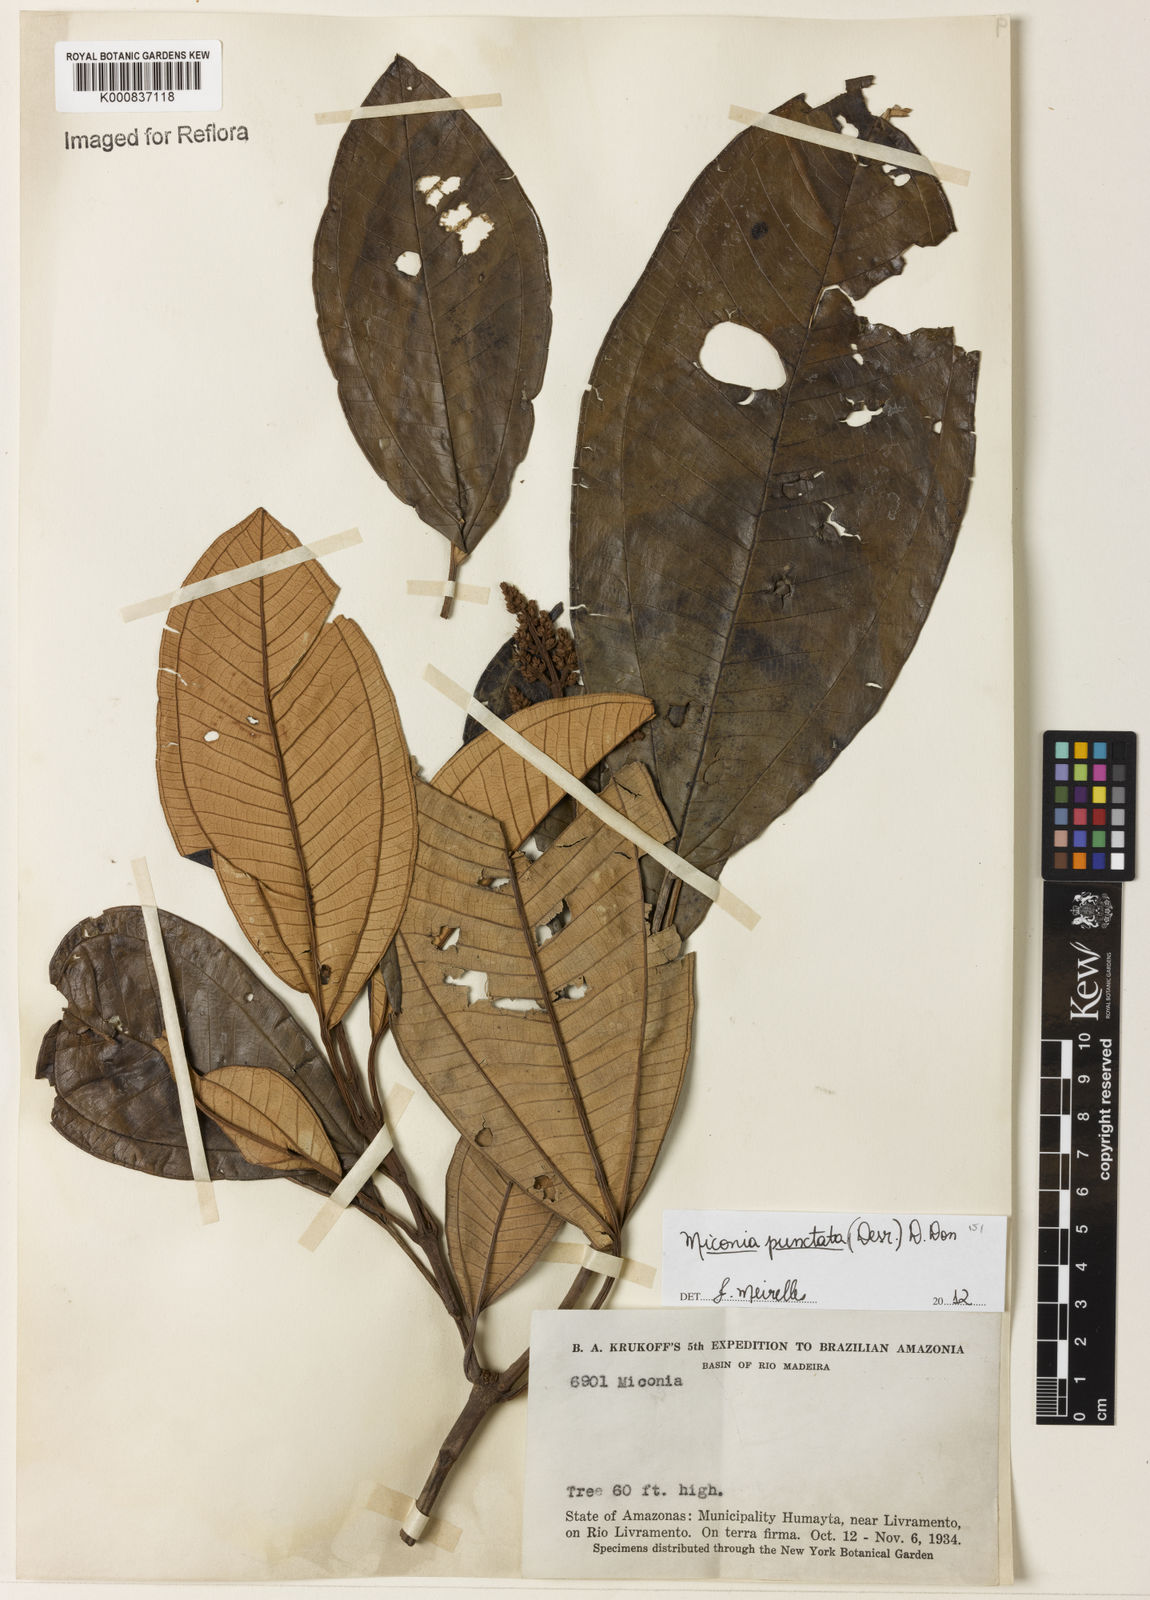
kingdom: Plantae
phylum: Tracheophyta
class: Magnoliopsida
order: Myrtales
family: Melastomataceae
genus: Miconia
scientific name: Miconia punctata
